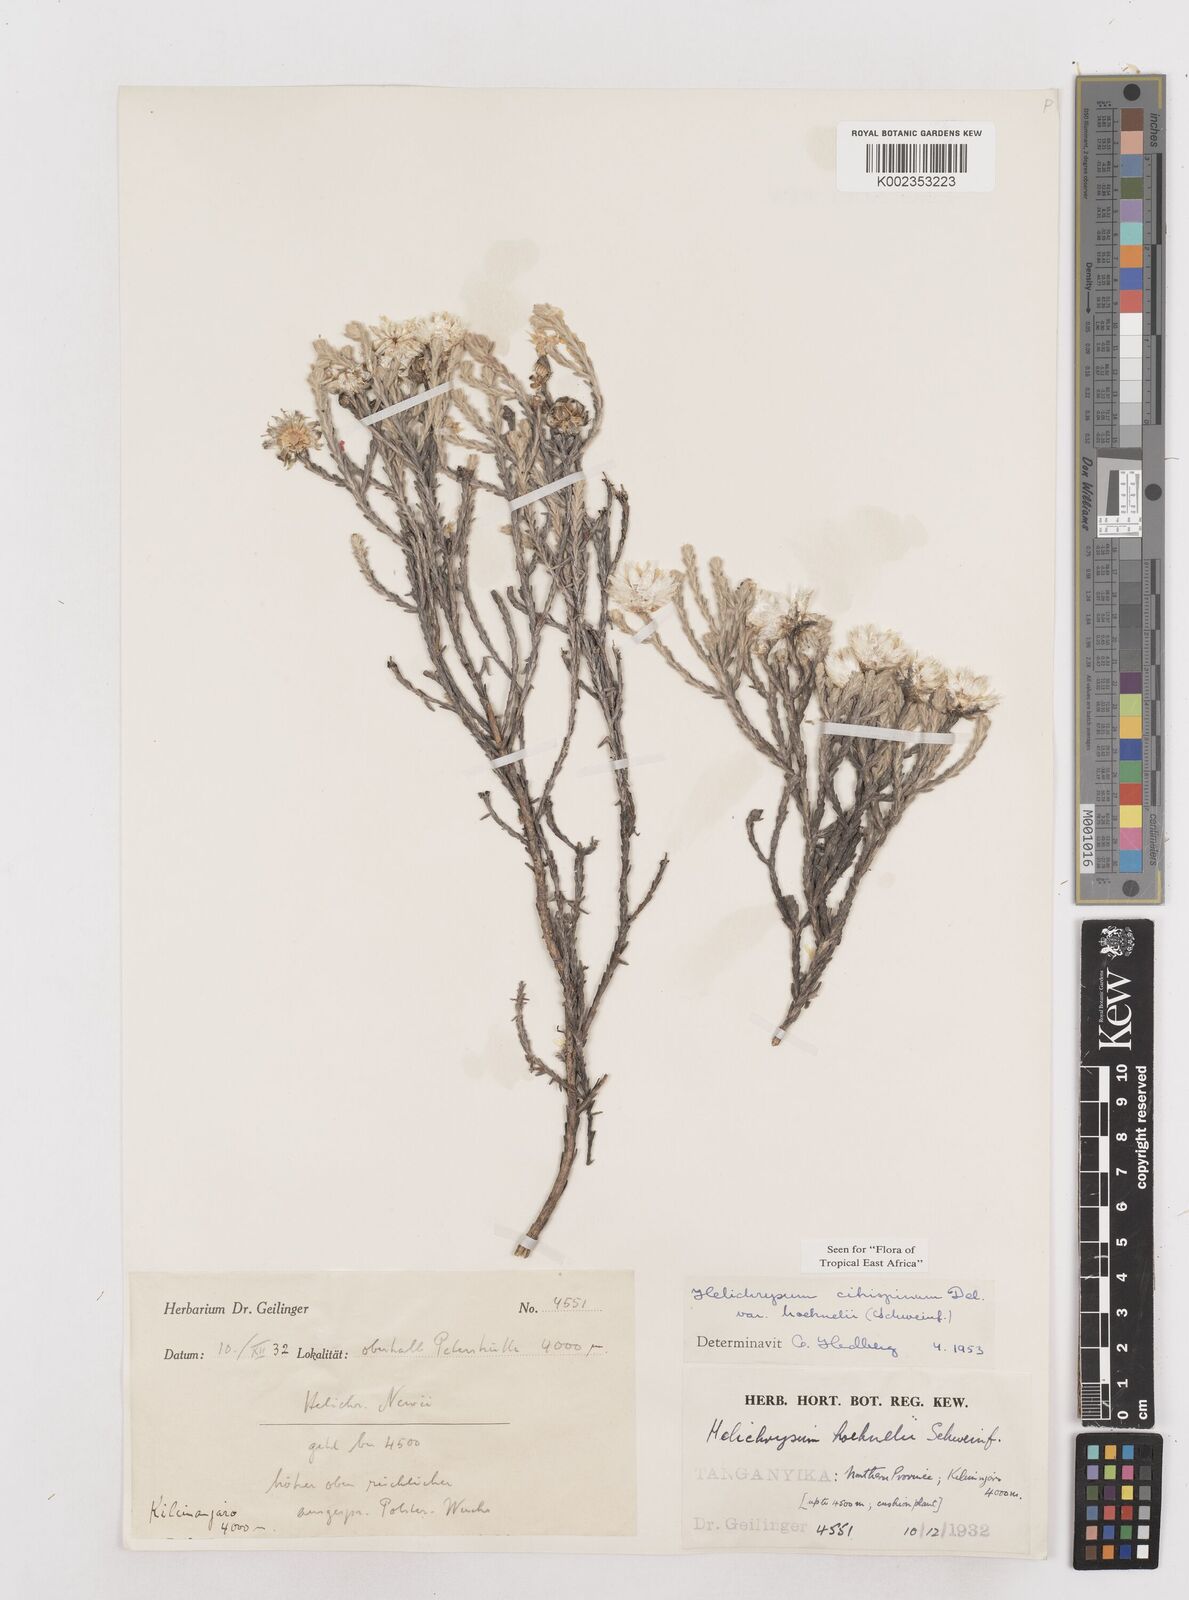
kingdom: Plantae
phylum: Tracheophyta
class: Magnoliopsida
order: Asterales
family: Asteraceae
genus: Helichrysum
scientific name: Helichrysum citrispinum
